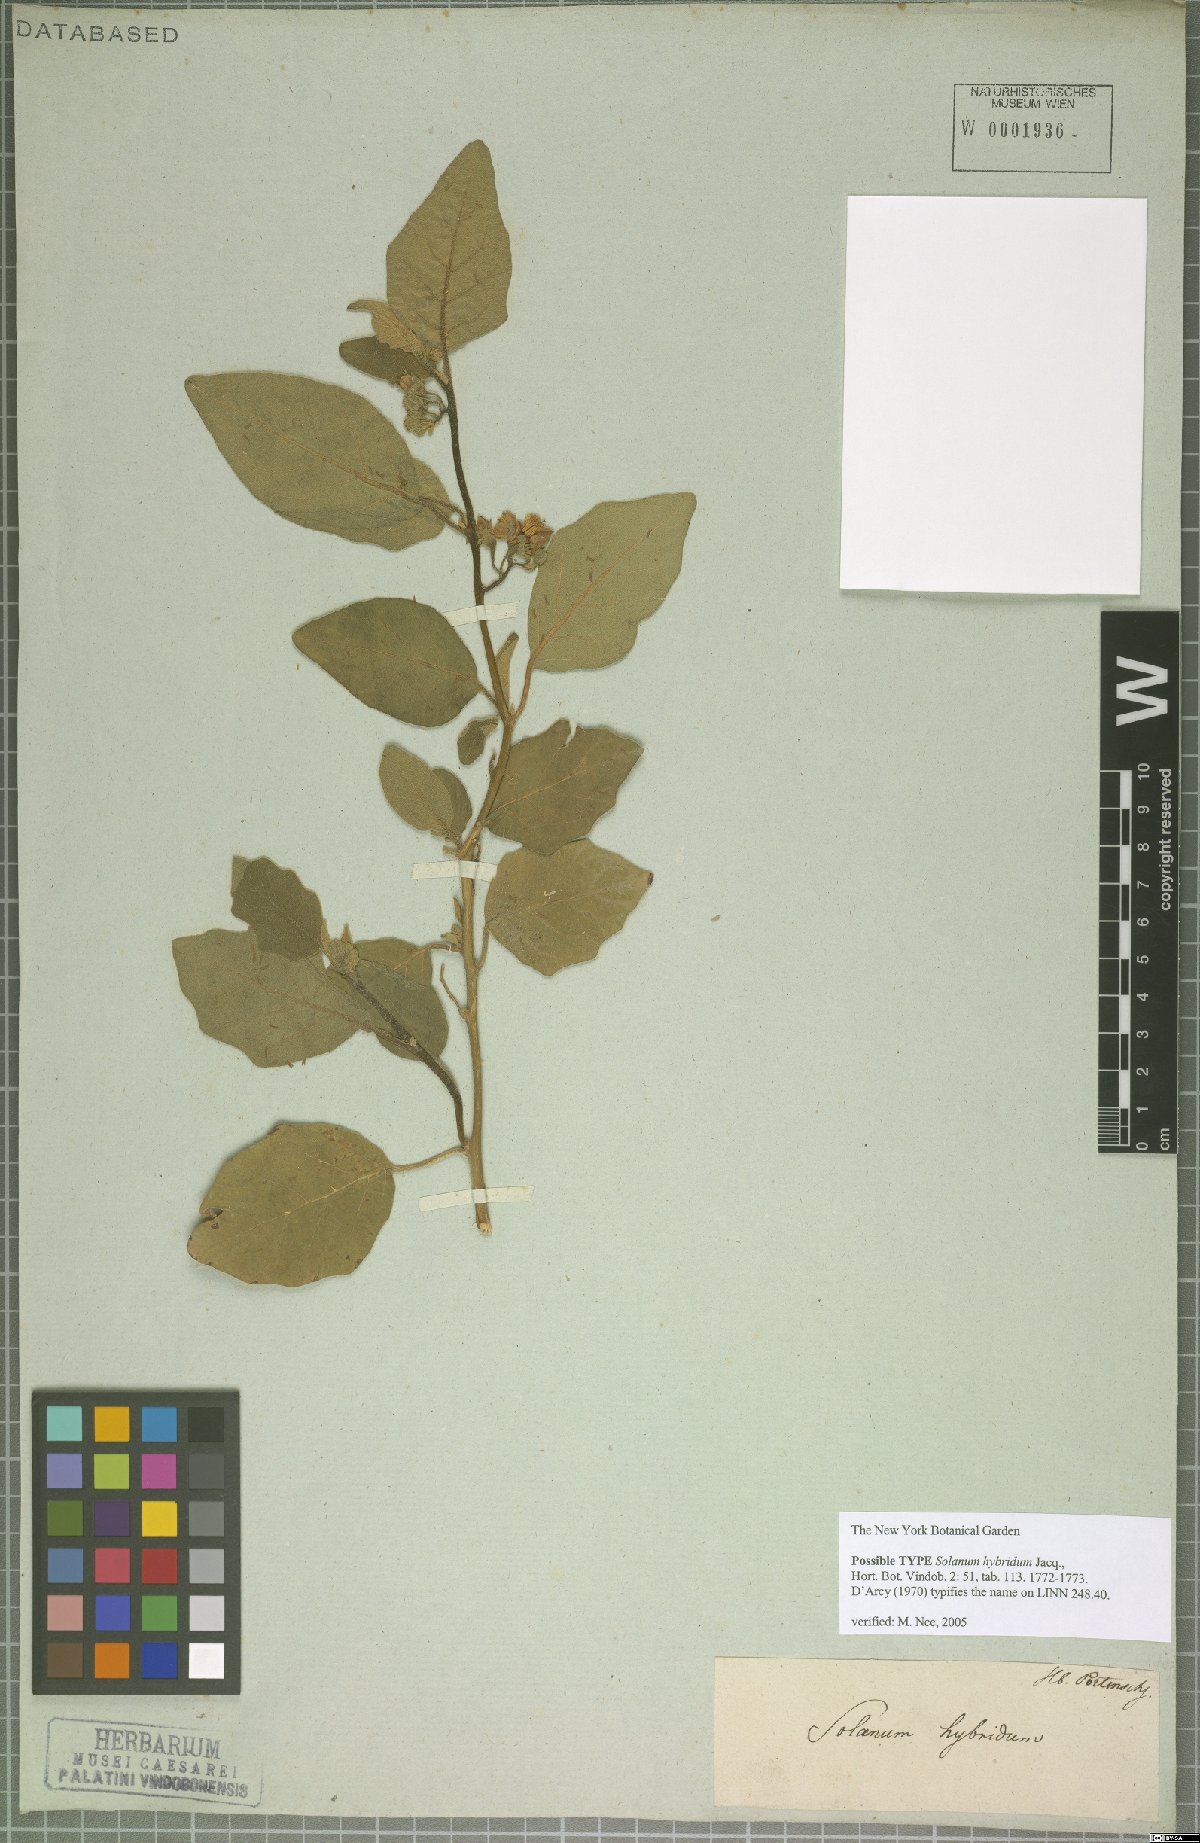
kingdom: Plantae
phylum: Tracheophyta
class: Magnoliopsida
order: Solanales
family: Solanaceae
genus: Solanum
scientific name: Solanum aethiopicum
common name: Gilo
